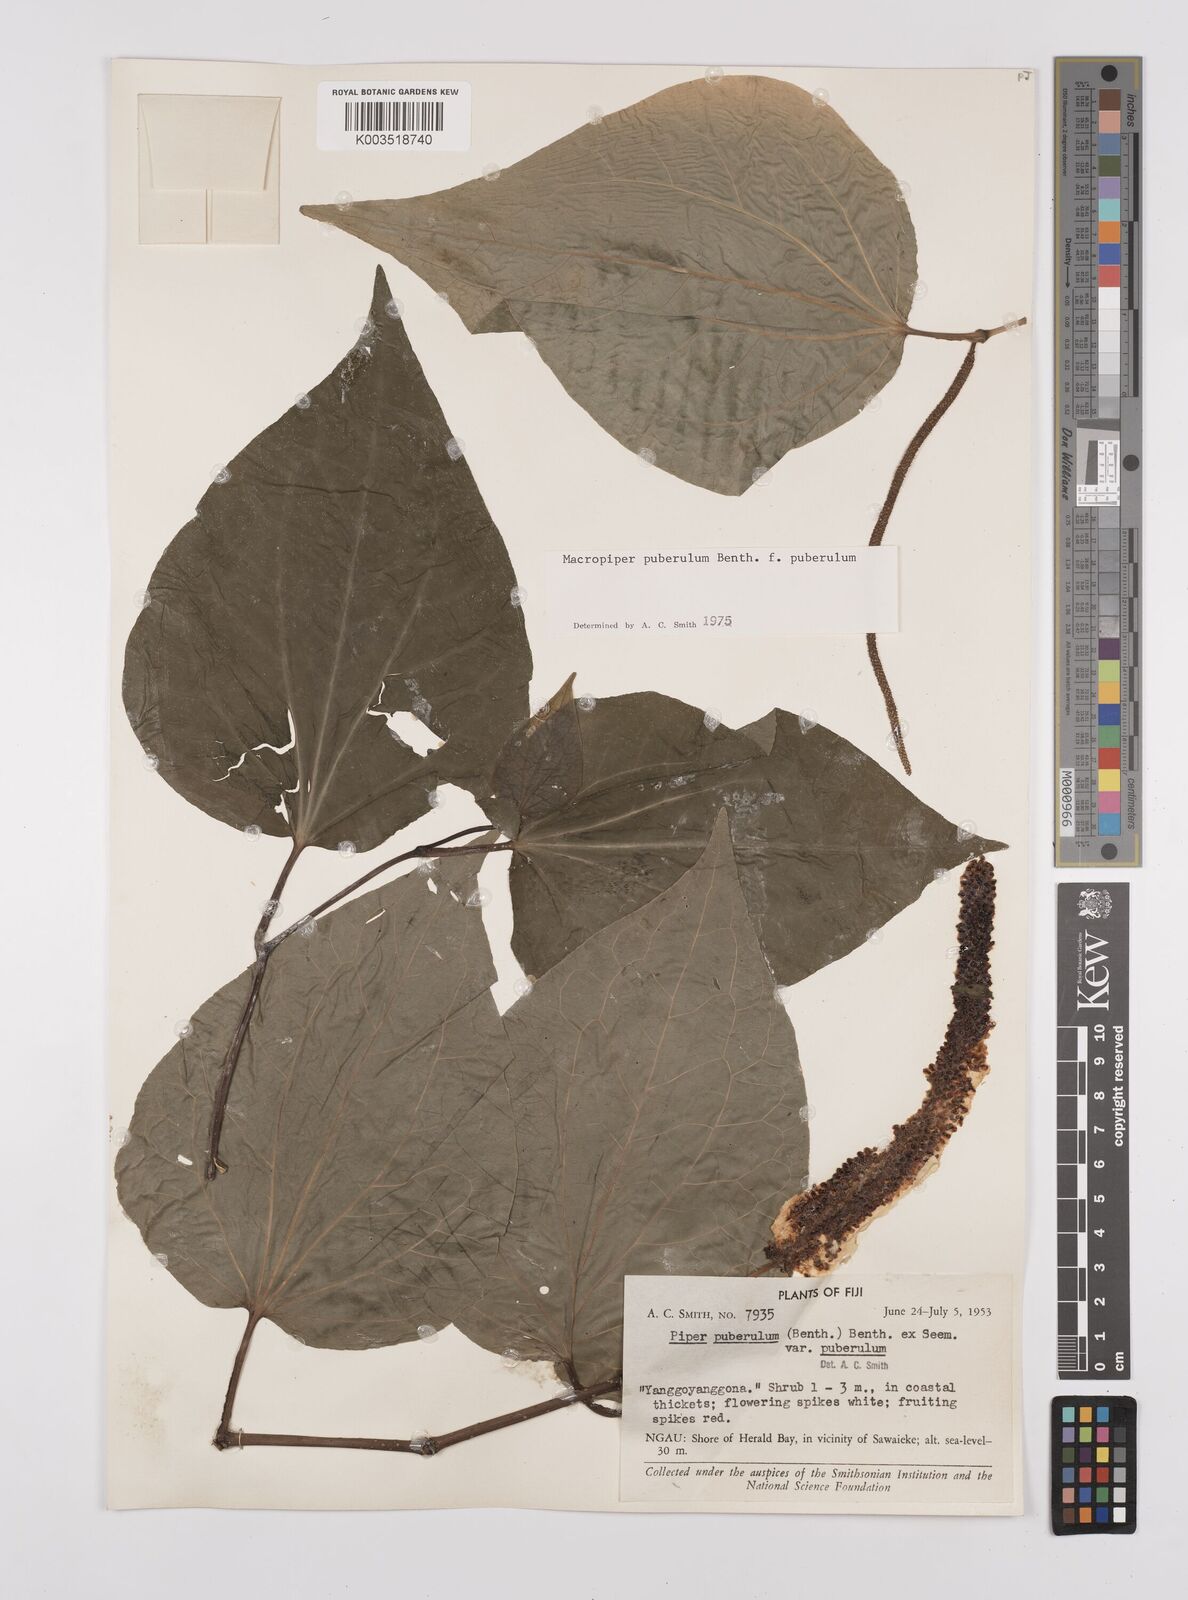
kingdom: Plantae
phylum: Tracheophyta
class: Magnoliopsida
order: Piperales
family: Piperaceae
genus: Macropiper
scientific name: Macropiper puberulum
